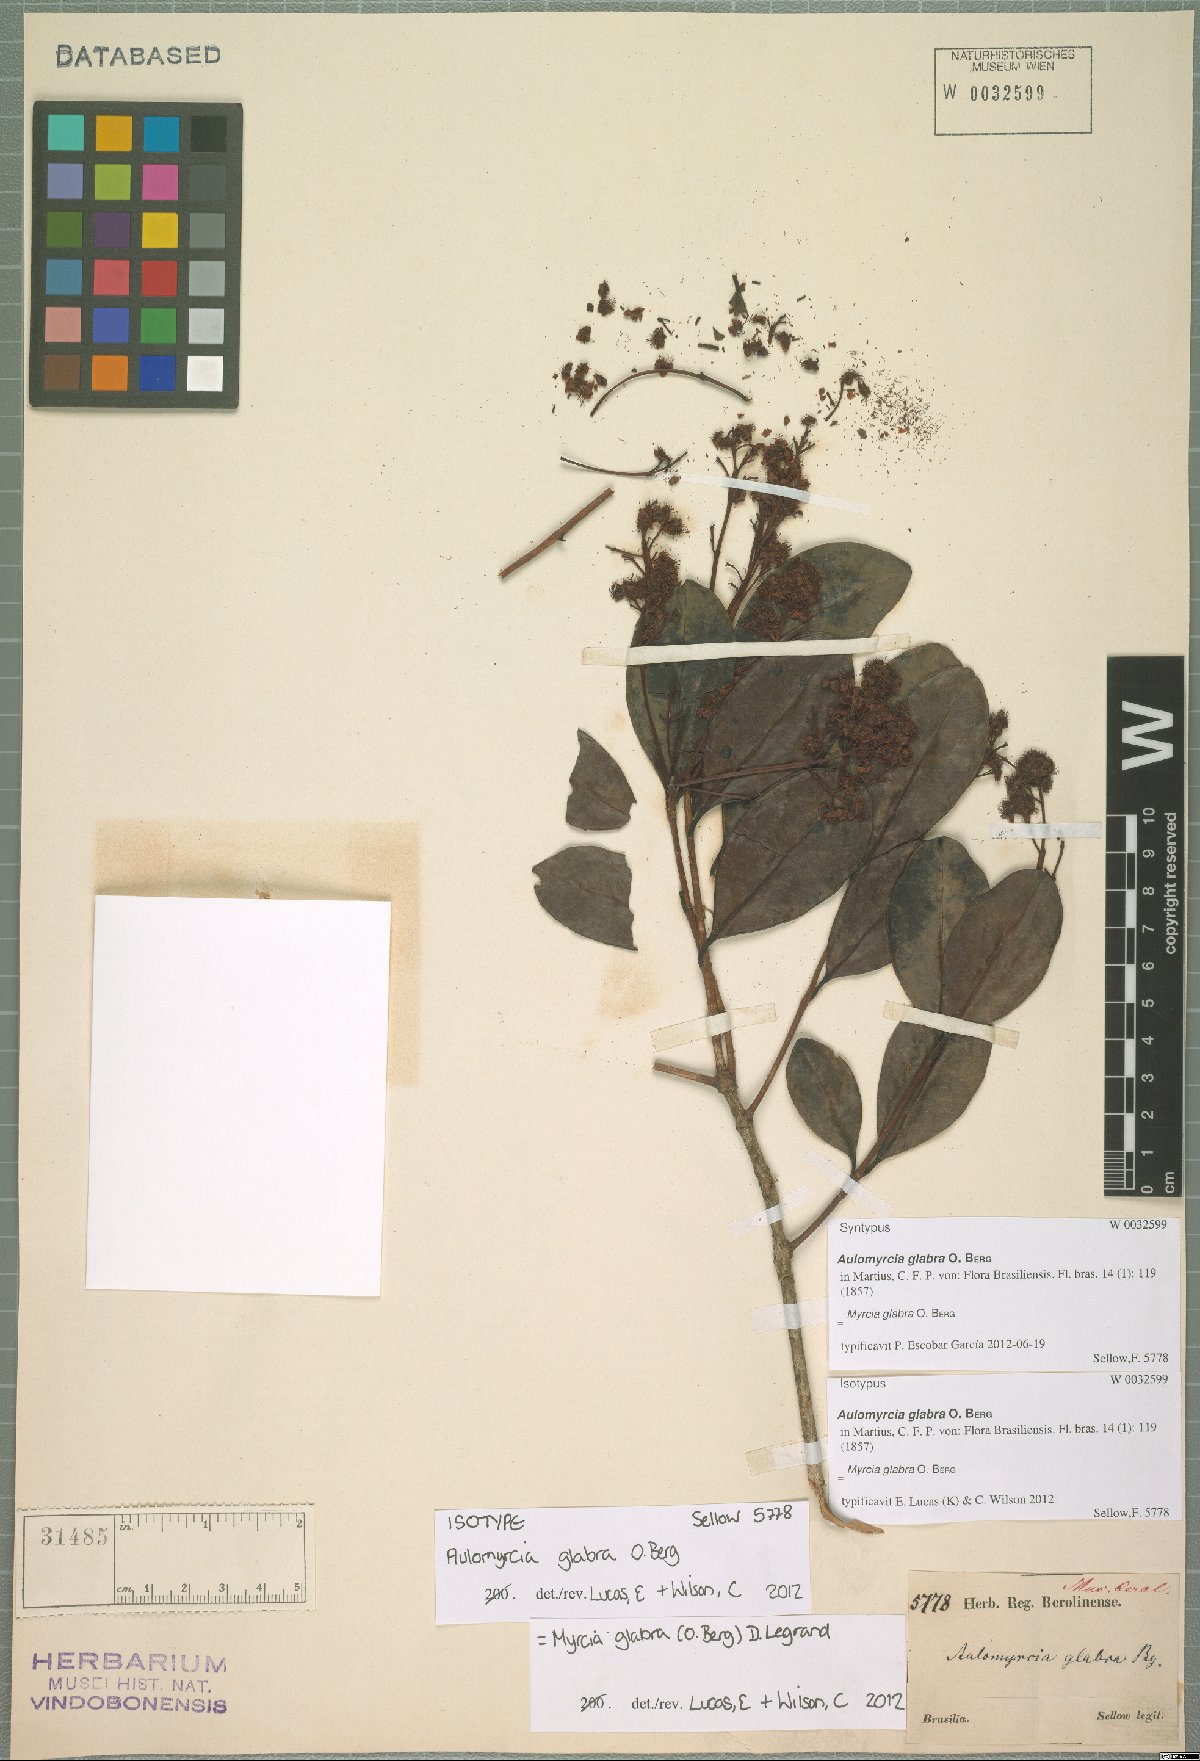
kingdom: Plantae
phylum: Tracheophyta
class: Magnoliopsida
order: Myrtales
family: Myrtaceae
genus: Myrcia
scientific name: Myrcia glabra
